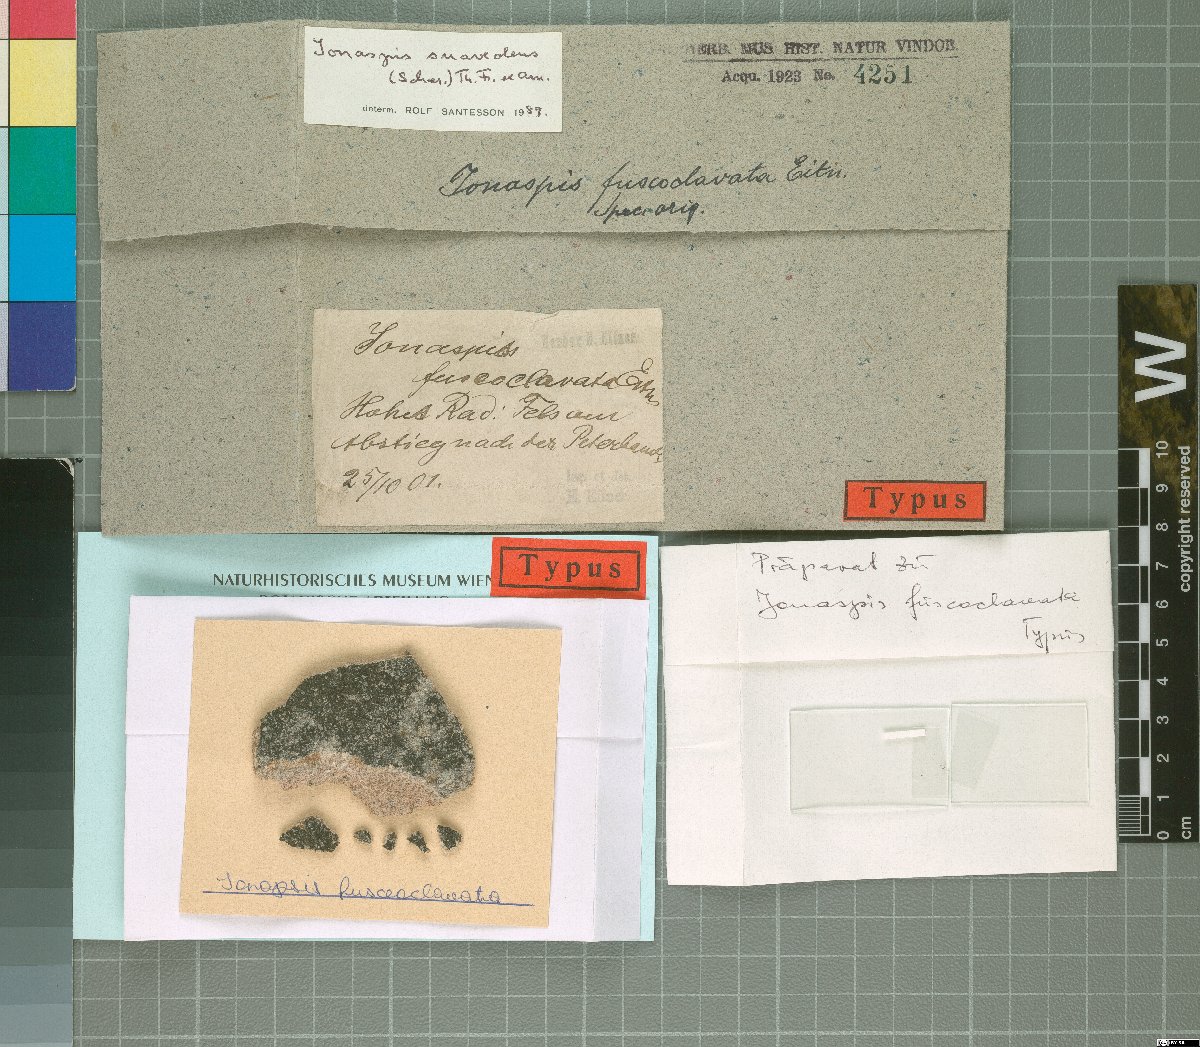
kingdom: Fungi
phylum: Ascomycota
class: Lecanoromycetes
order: Hymeneliales
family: Hymeneliaceae
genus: Ionaspis
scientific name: Ionaspis
